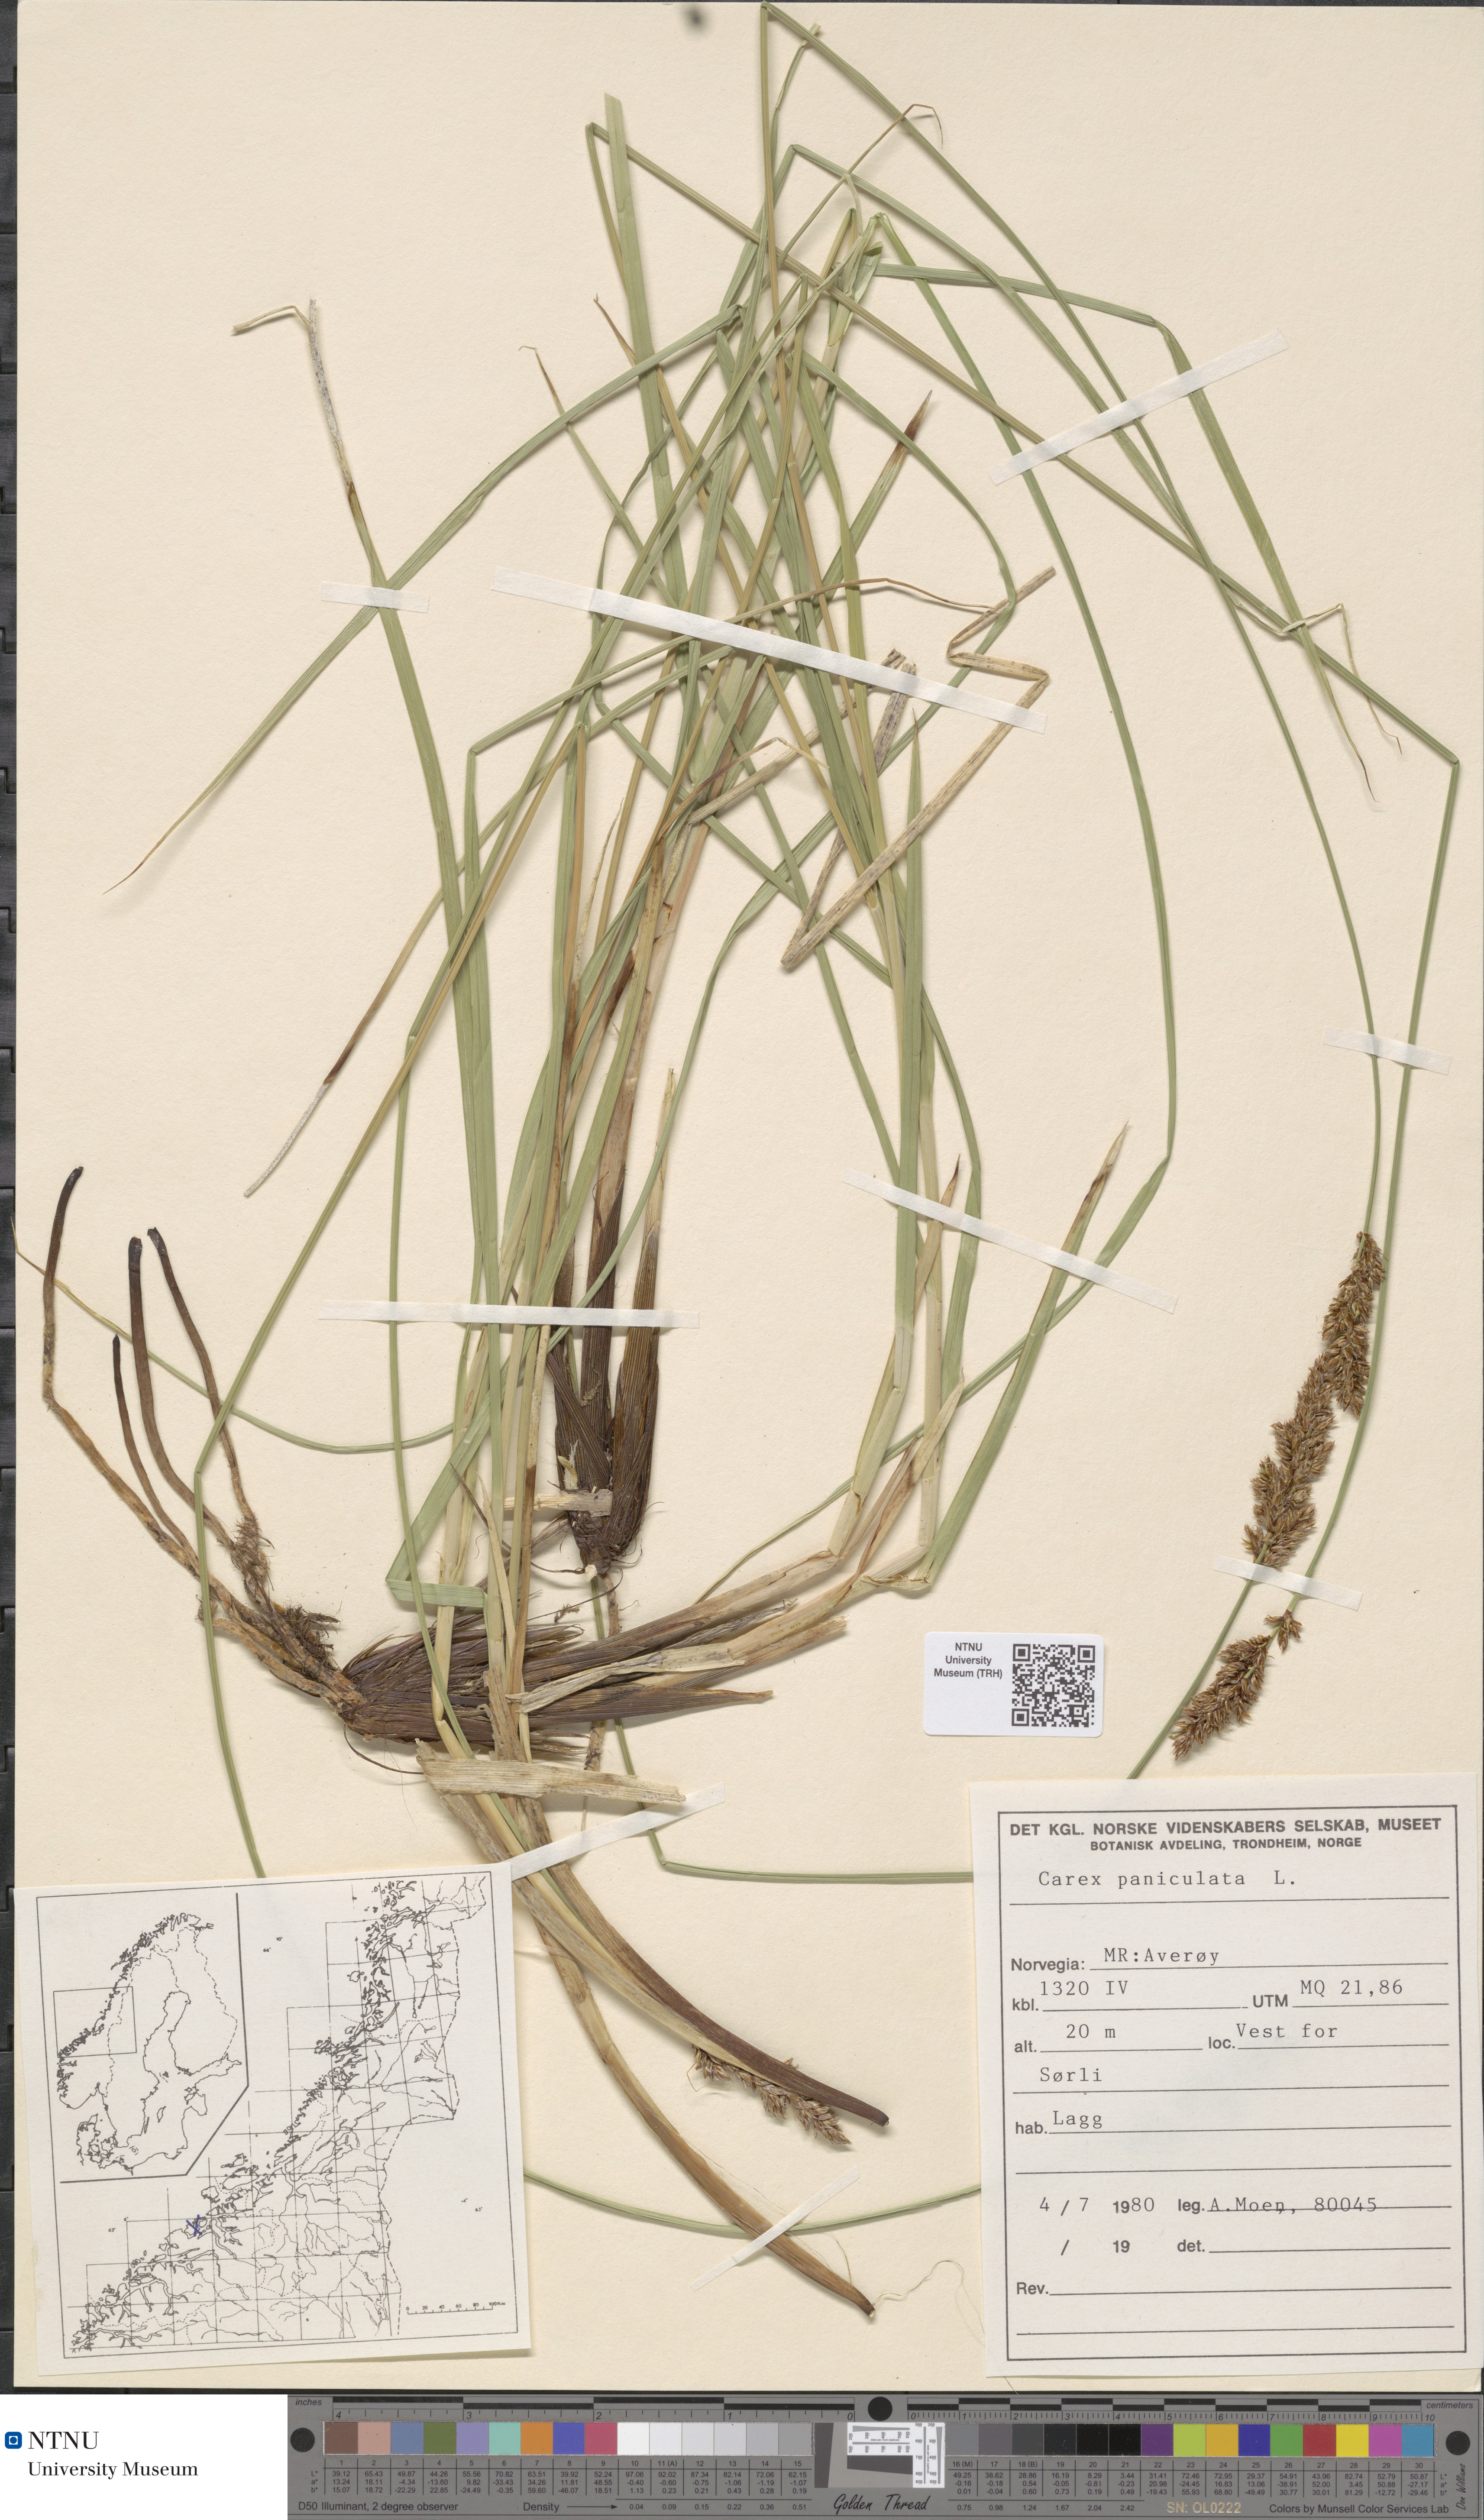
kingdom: Plantae
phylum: Tracheophyta
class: Liliopsida
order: Poales
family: Cyperaceae
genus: Carex
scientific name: Carex paniculata
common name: Greater tussock-sedge
